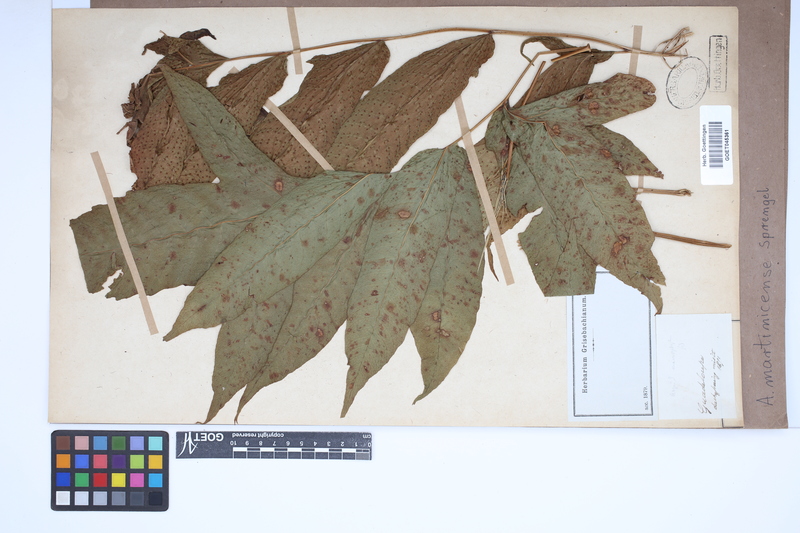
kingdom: Plantae
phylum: Tracheophyta
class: Polypodiopsida
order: Polypodiales
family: Tectariaceae
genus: Tectaria
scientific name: Tectaria incisa
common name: Incised halberd fern
